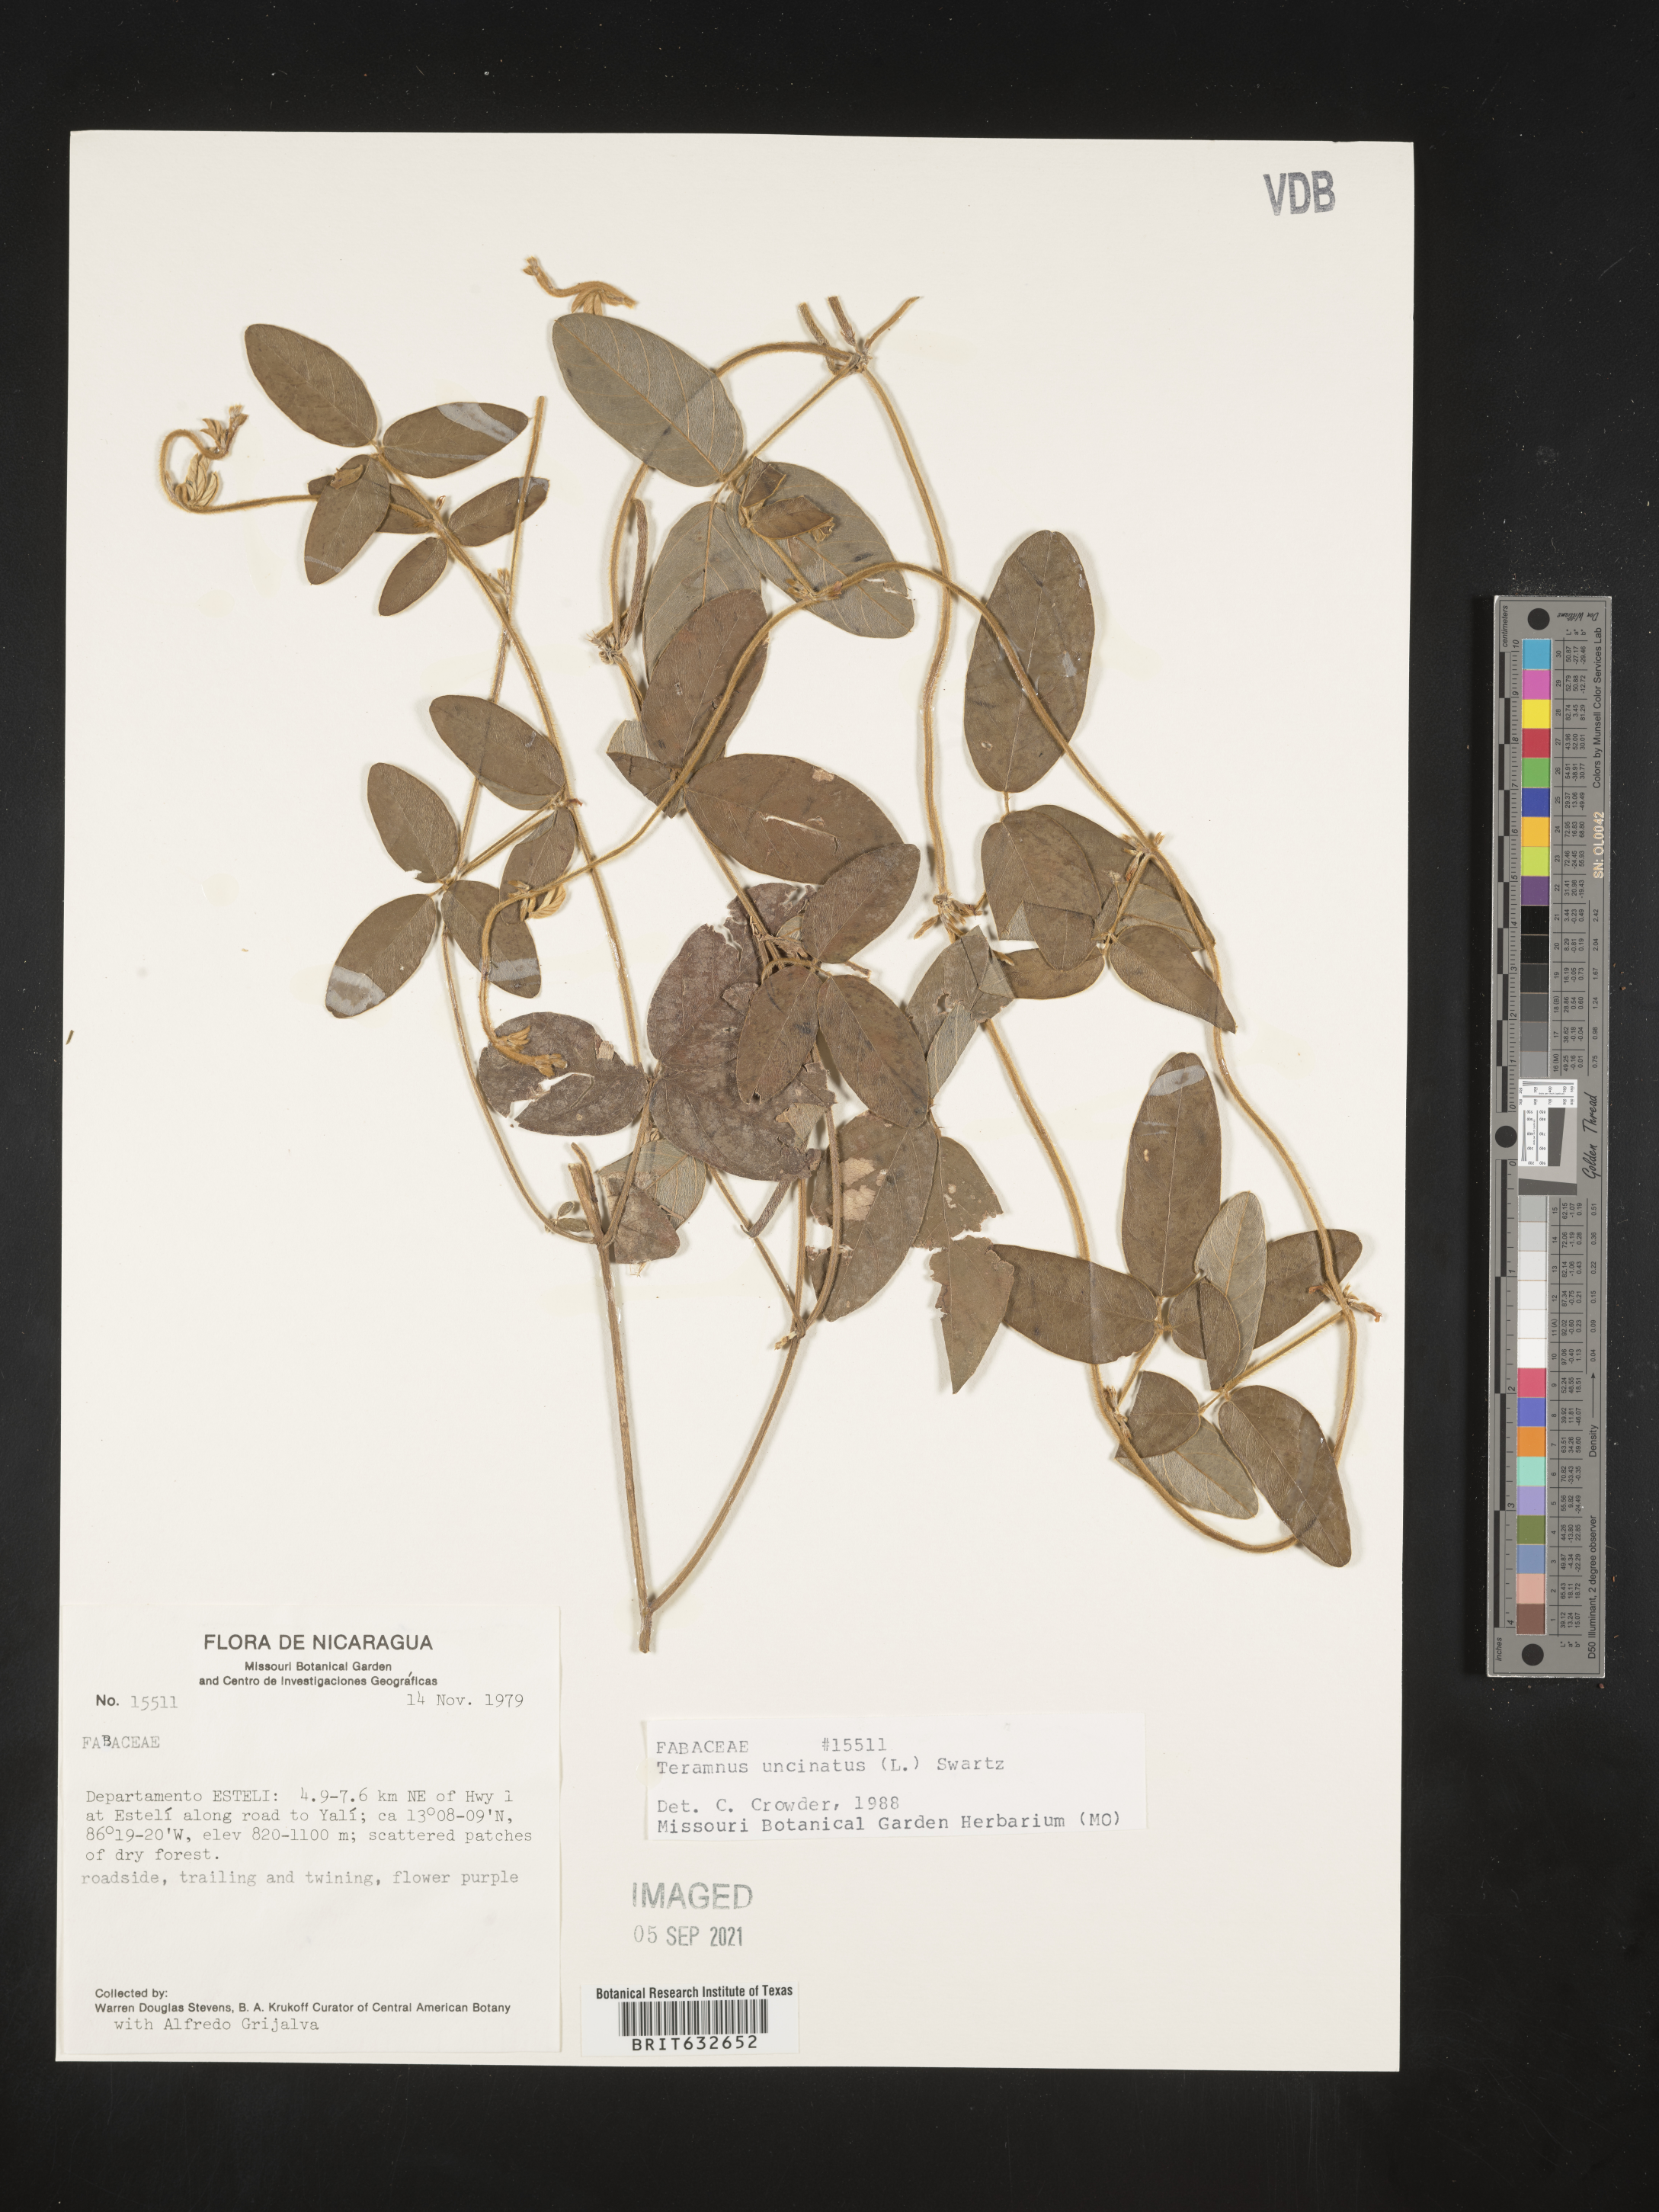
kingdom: Plantae
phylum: Tracheophyta
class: Magnoliopsida
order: Fabales
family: Fabaceae
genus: Teramnus
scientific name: Teramnus
